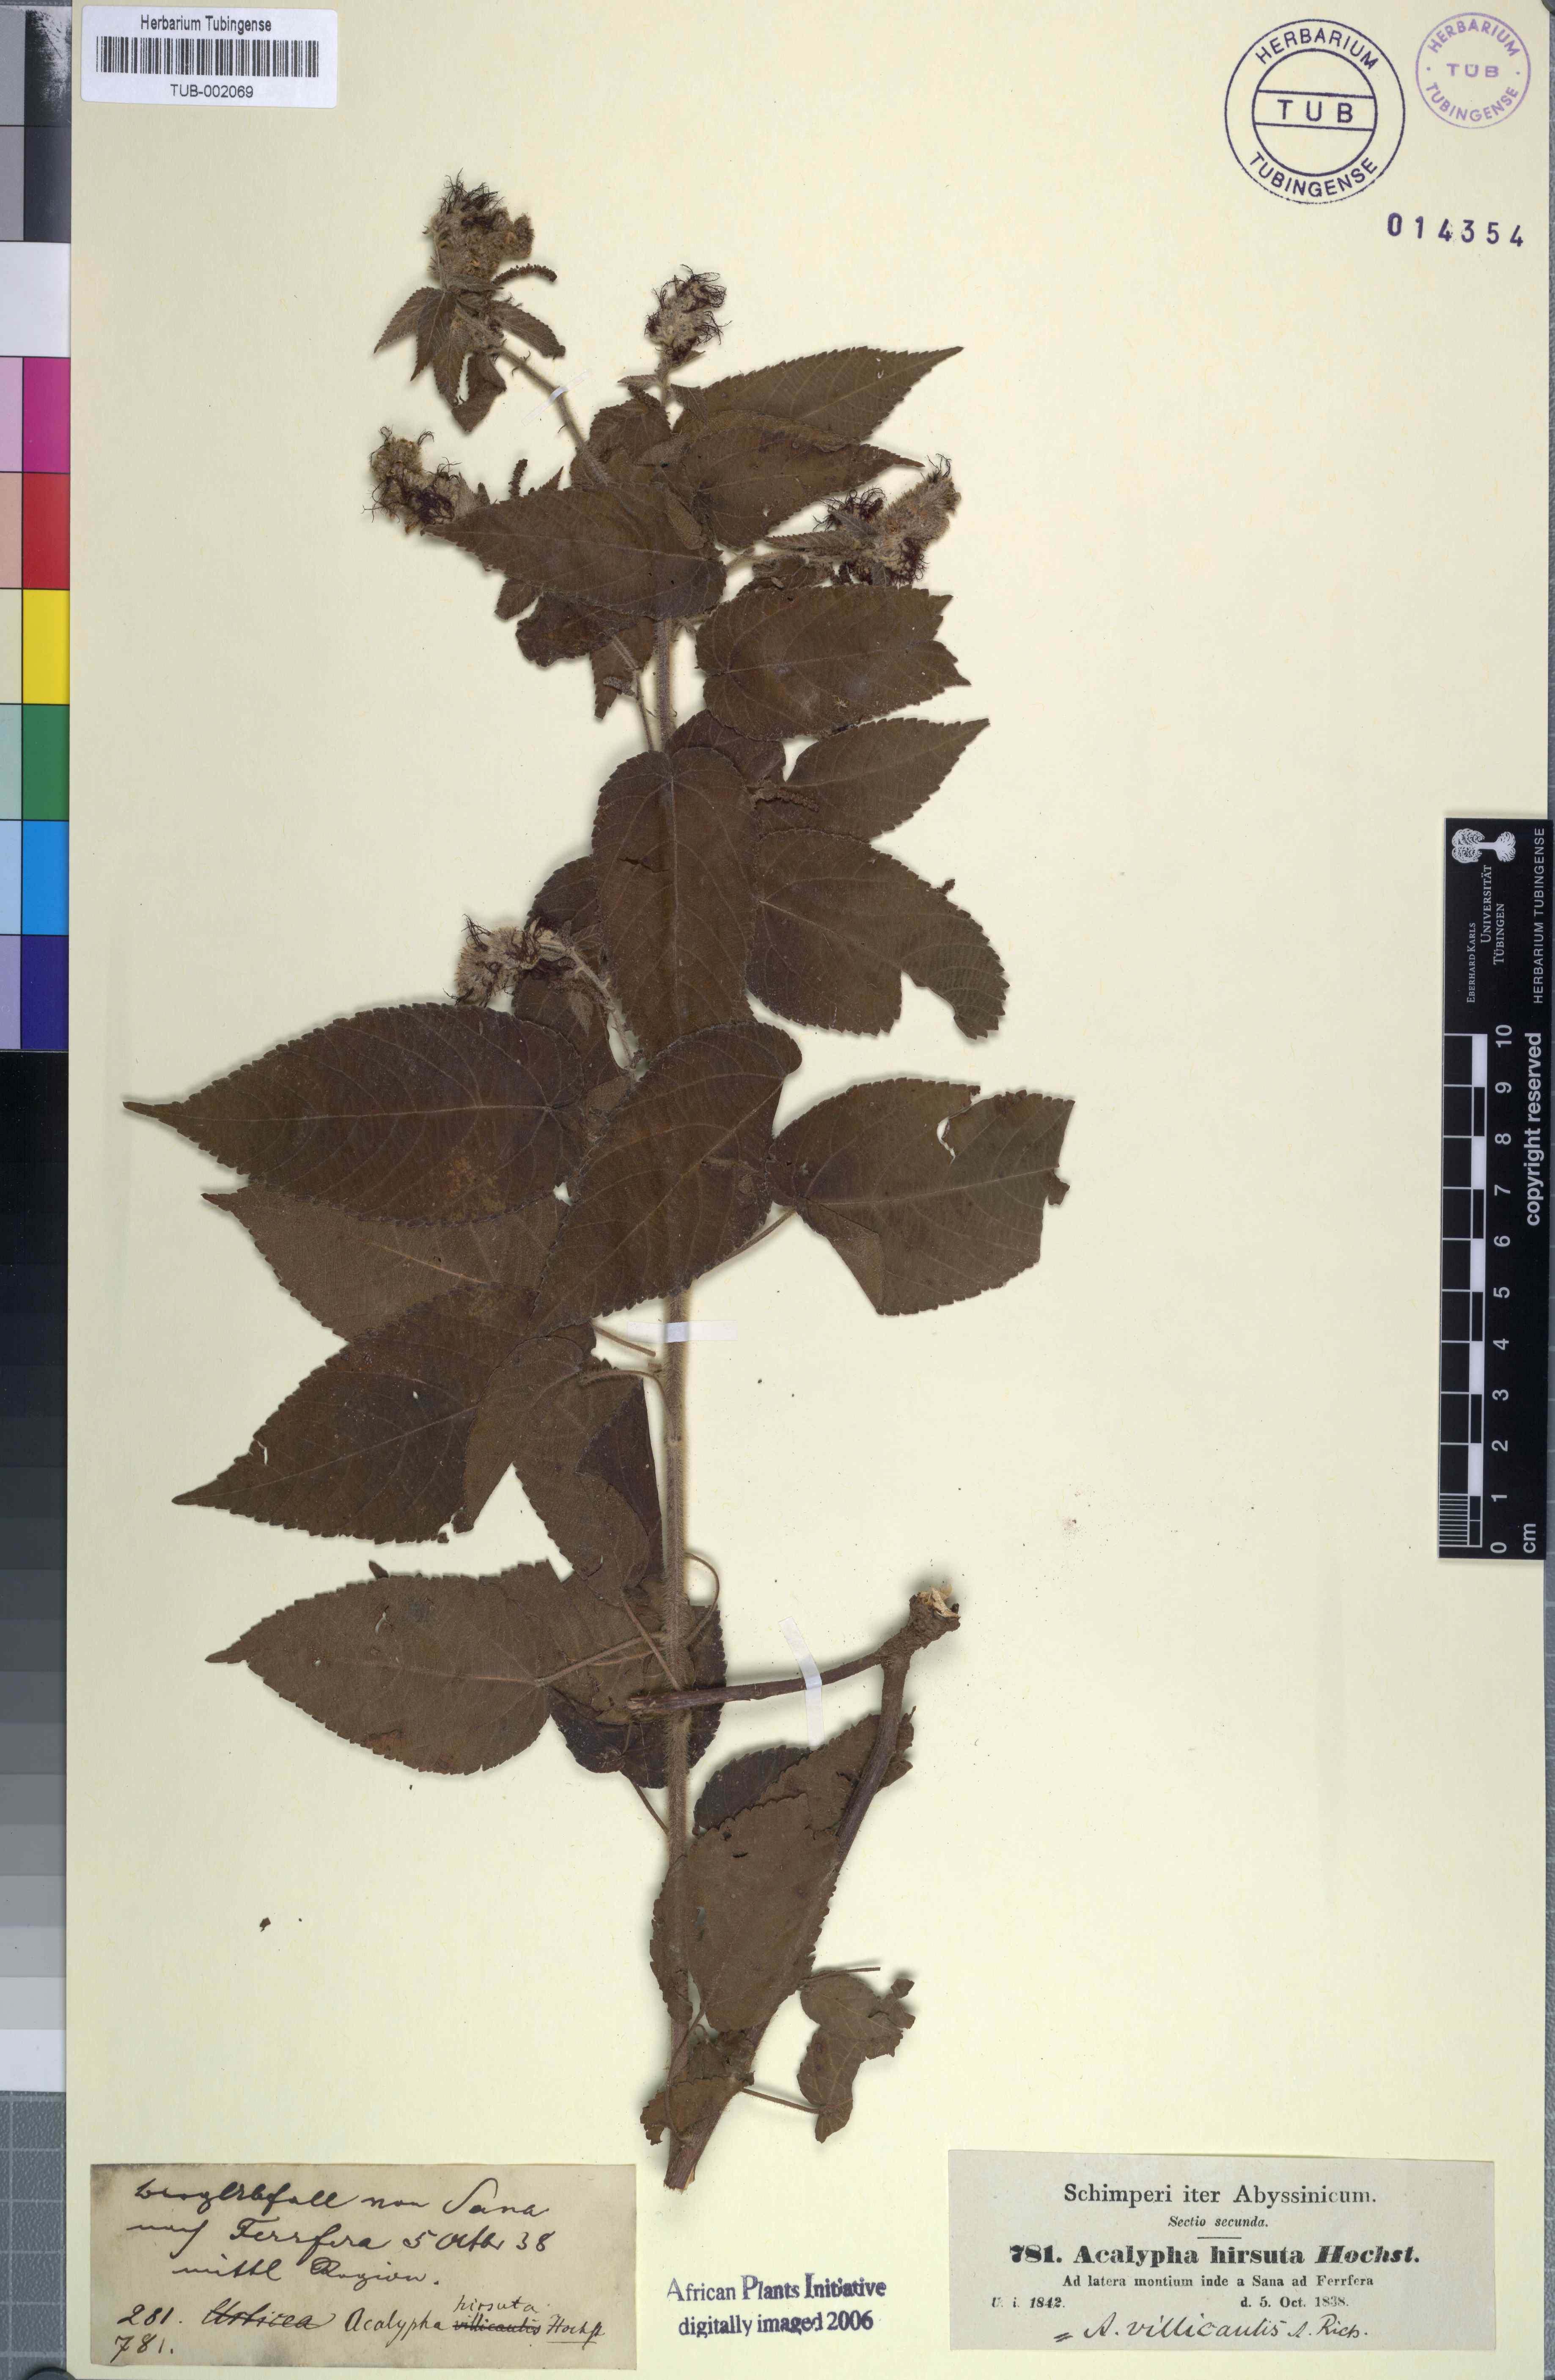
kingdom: Plantae
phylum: Tracheophyta
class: Magnoliopsida
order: Malpighiales
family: Euphorbiaceae
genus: Acalypha
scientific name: Acalypha petiolaris
